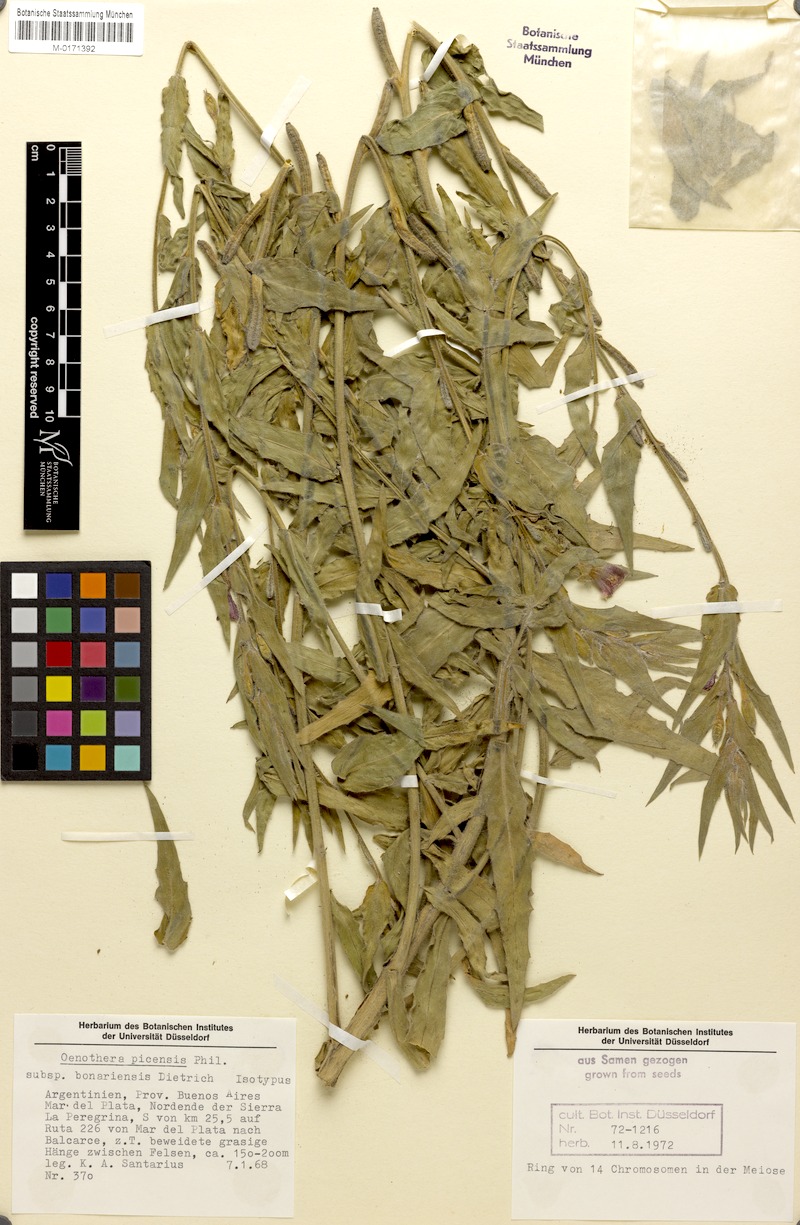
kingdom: Plantae
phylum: Tracheophyta
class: Magnoliopsida
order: Myrtales
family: Onagraceae
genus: Oenothera
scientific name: Oenothera picensis
